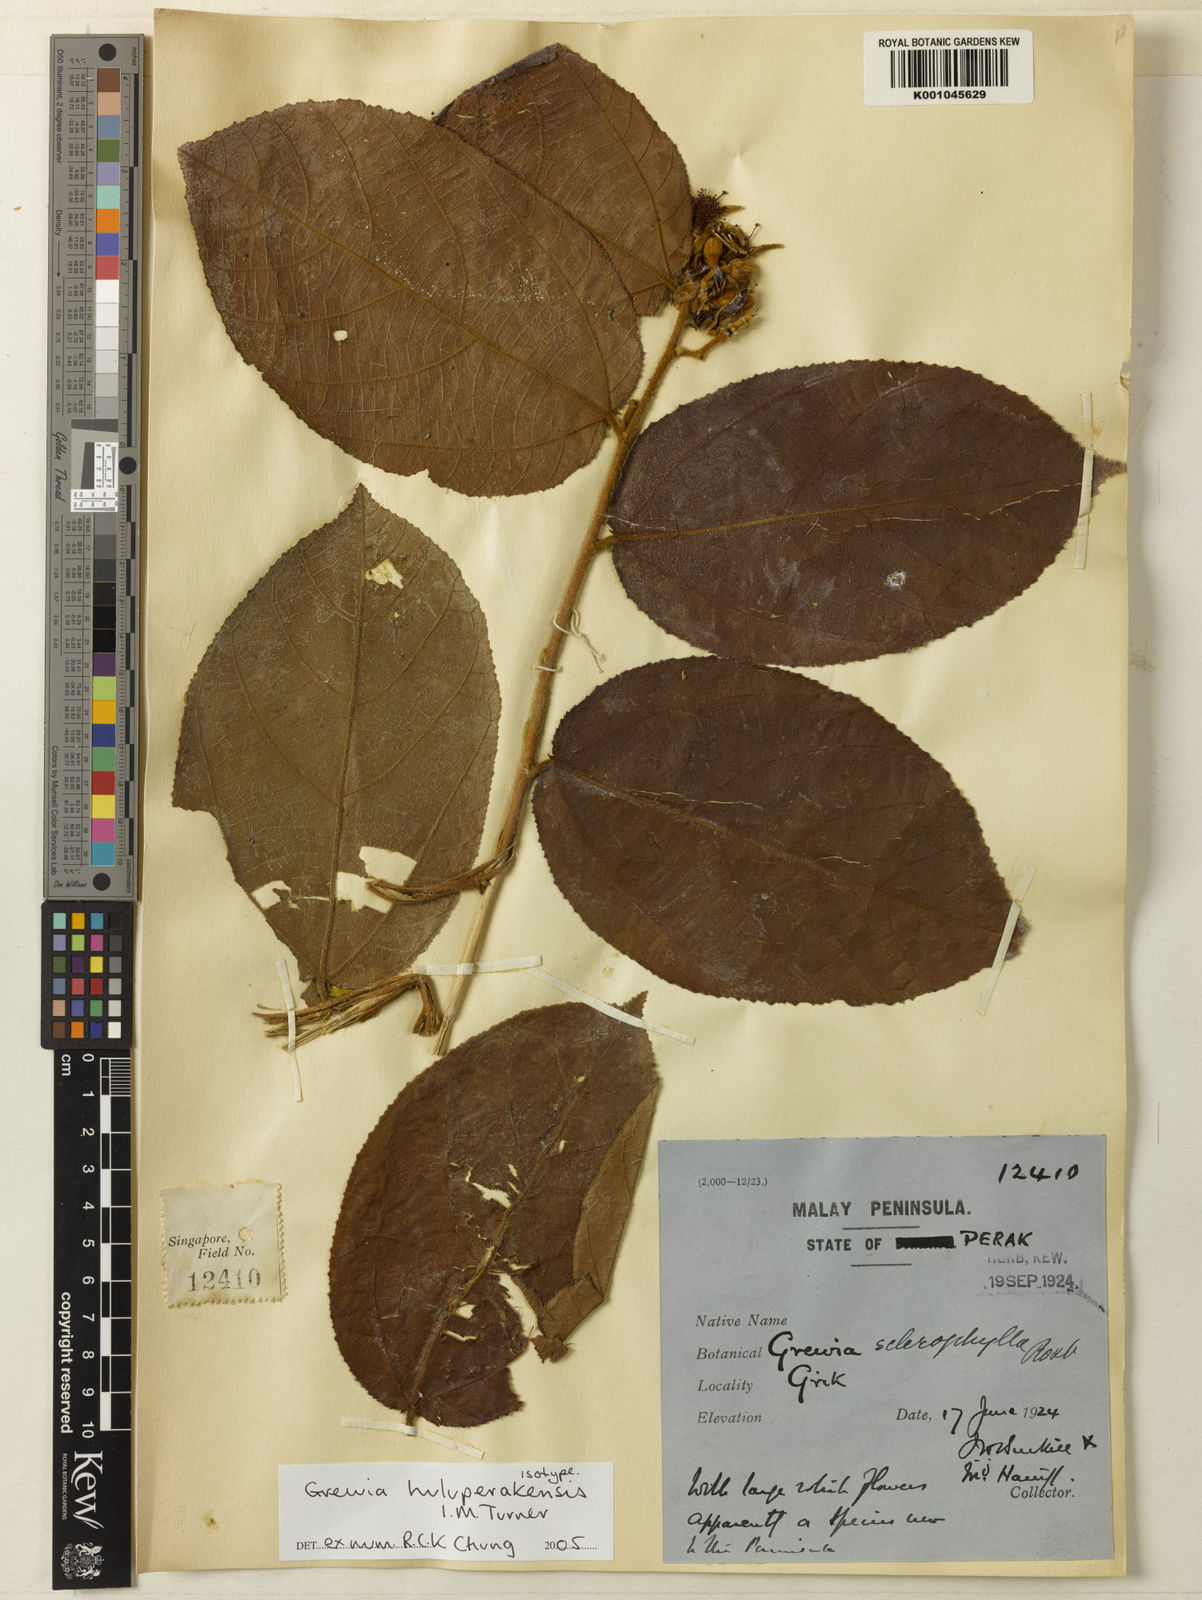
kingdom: Plantae
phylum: Tracheophyta
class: Magnoliopsida
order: Malvales
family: Malvaceae
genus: Grewia
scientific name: Grewia huluperakensis
